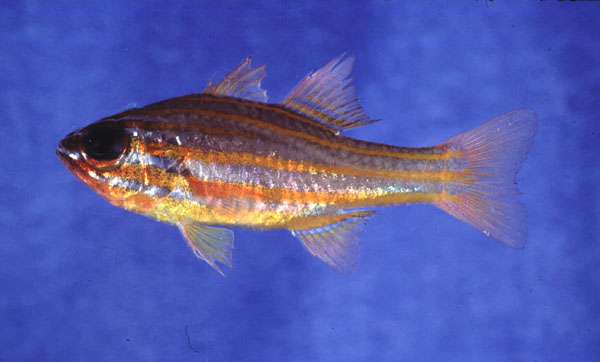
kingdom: Animalia
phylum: Chordata
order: Perciformes
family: Apogonidae
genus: Ostorhinchus
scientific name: Ostorhinchus cyanosoma
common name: Yellow-striped cardinalfish
